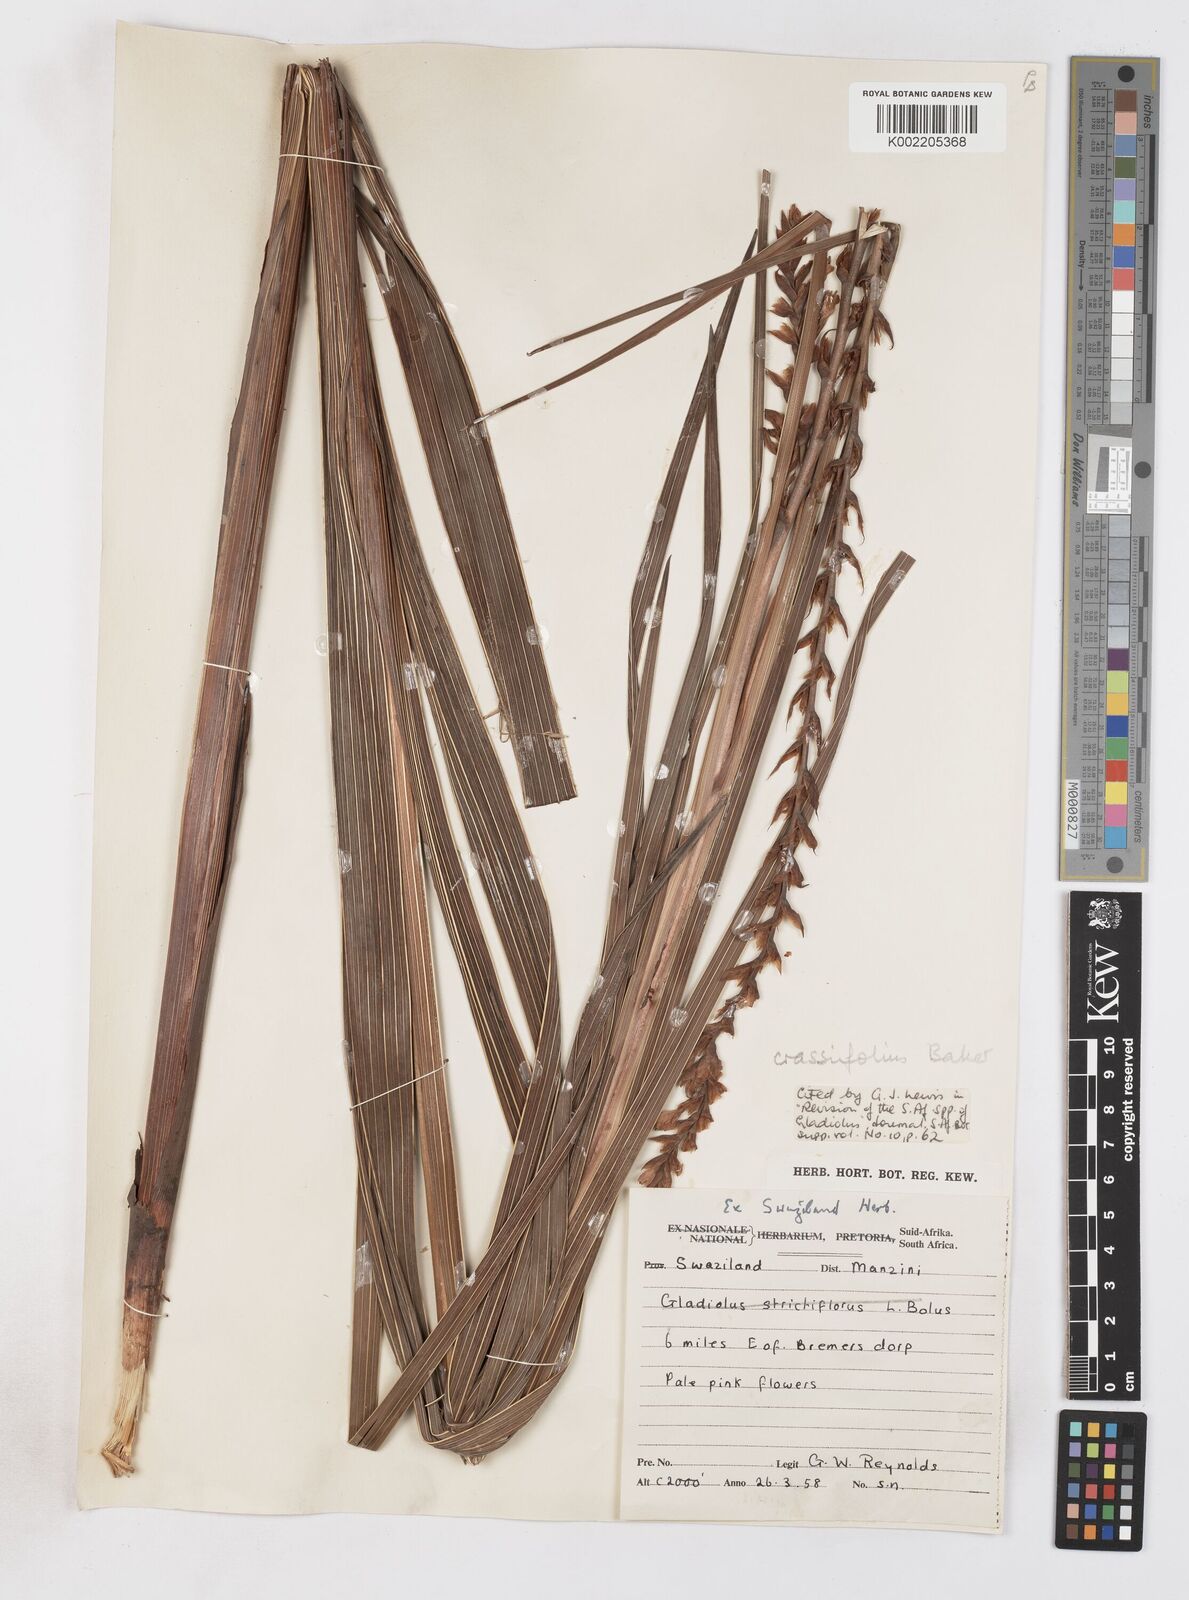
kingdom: Plantae
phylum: Tracheophyta
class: Liliopsida
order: Asparagales
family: Iridaceae
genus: Gladiolus
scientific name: Gladiolus crassifolius
